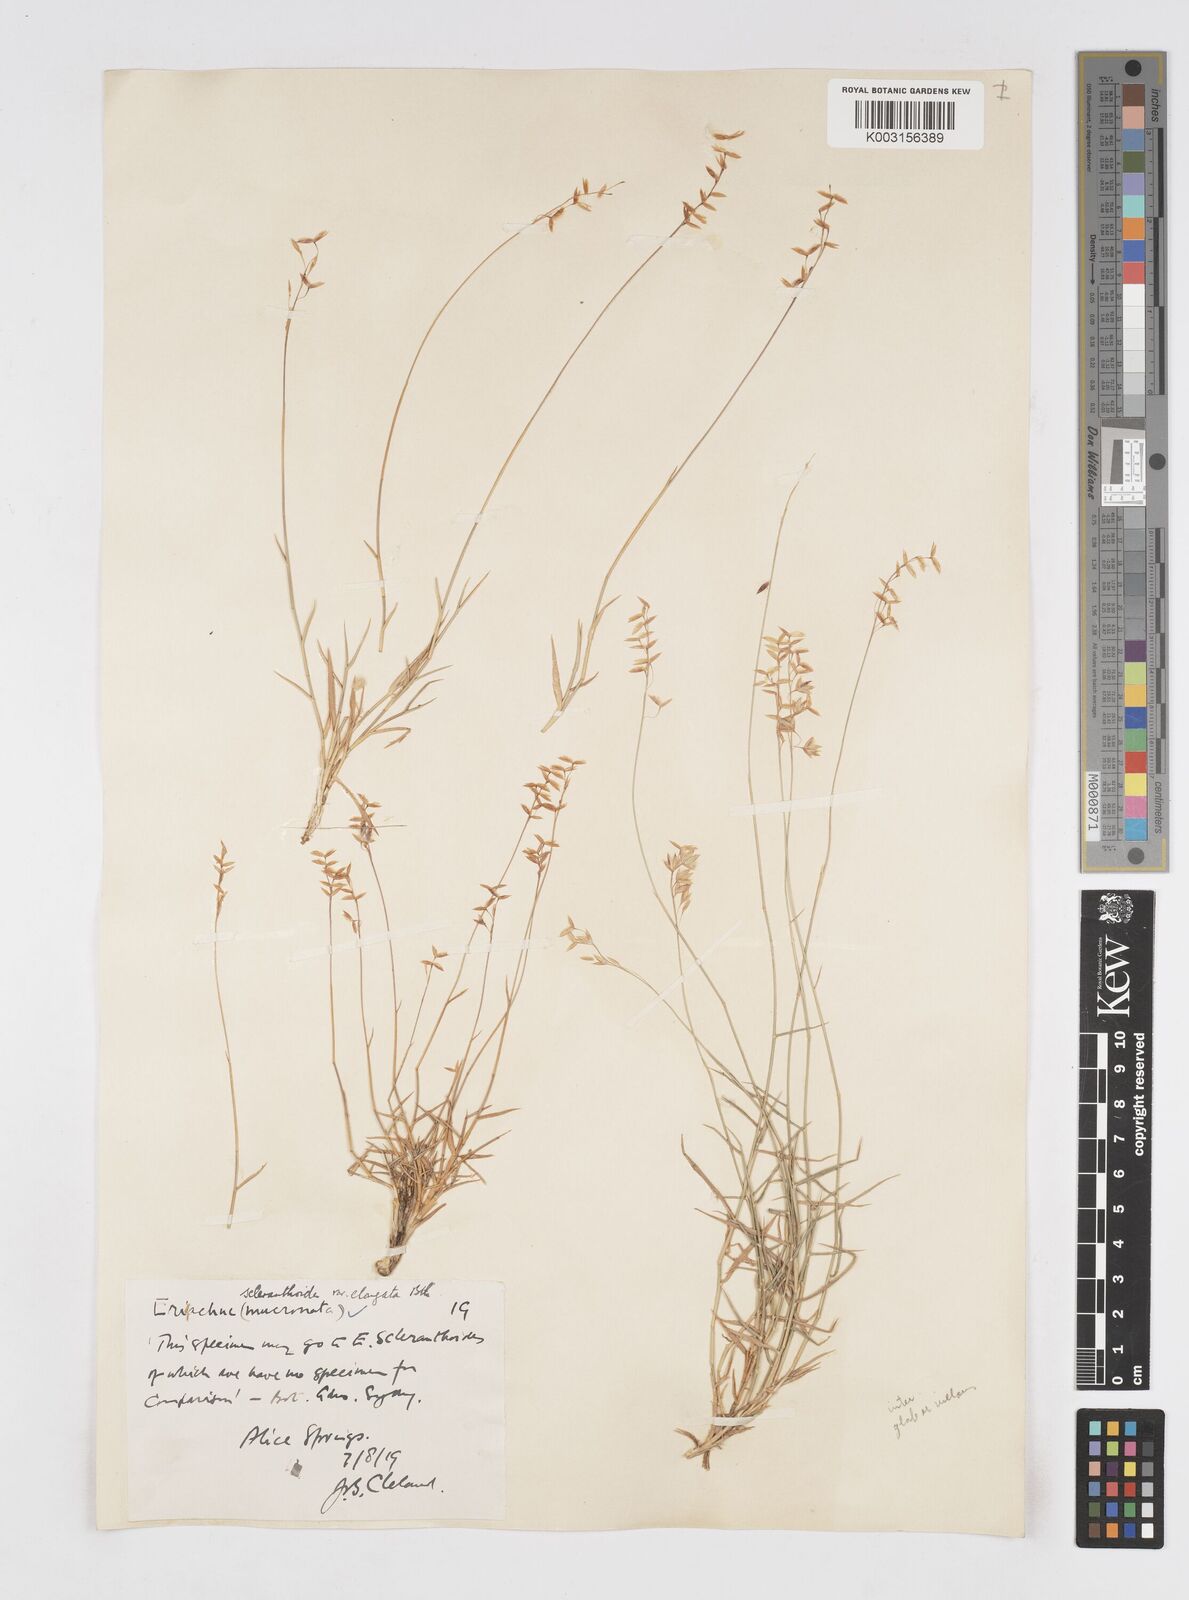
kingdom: Plantae
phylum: Tracheophyta
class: Liliopsida
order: Poales
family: Poaceae
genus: Eriachne
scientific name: Eriachne mucronata
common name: Mountain wanderrie grass
